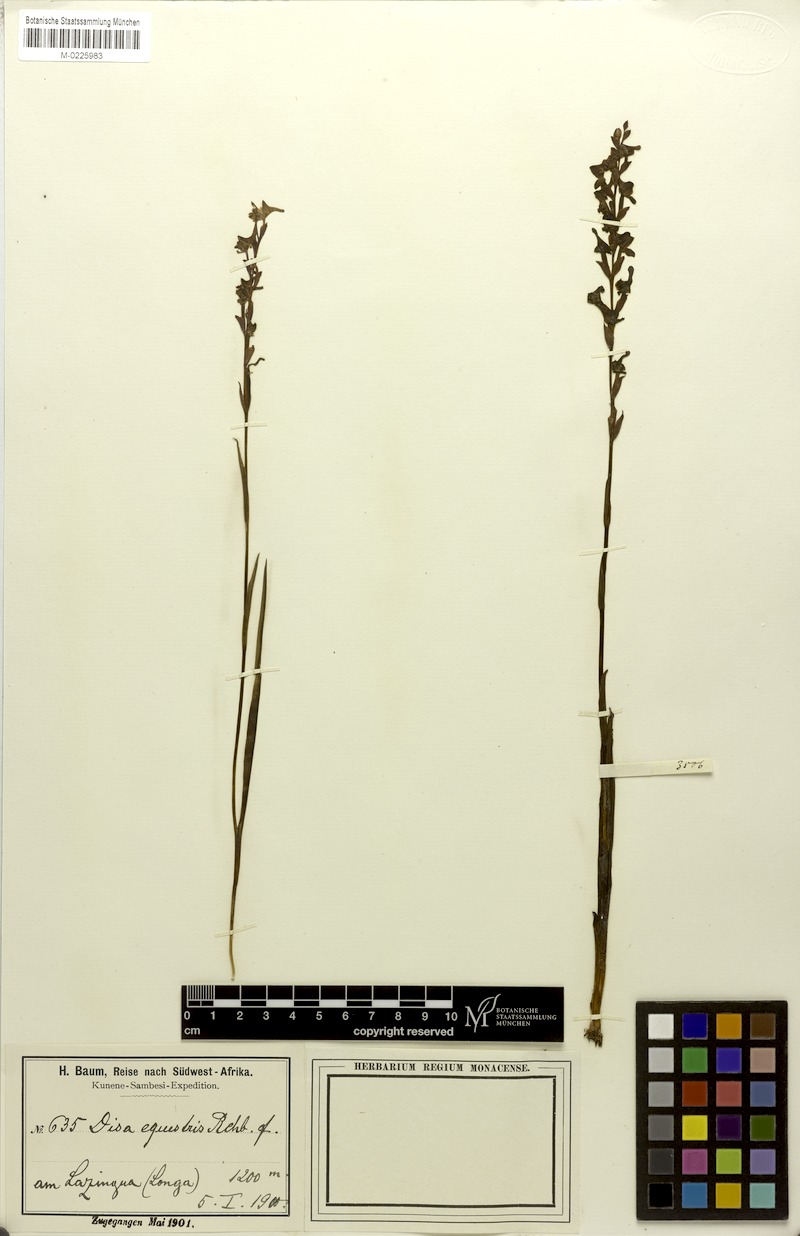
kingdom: Plantae
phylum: Tracheophyta
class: Liliopsida
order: Asparagales
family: Orchidaceae
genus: Disa
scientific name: Disa equestris
